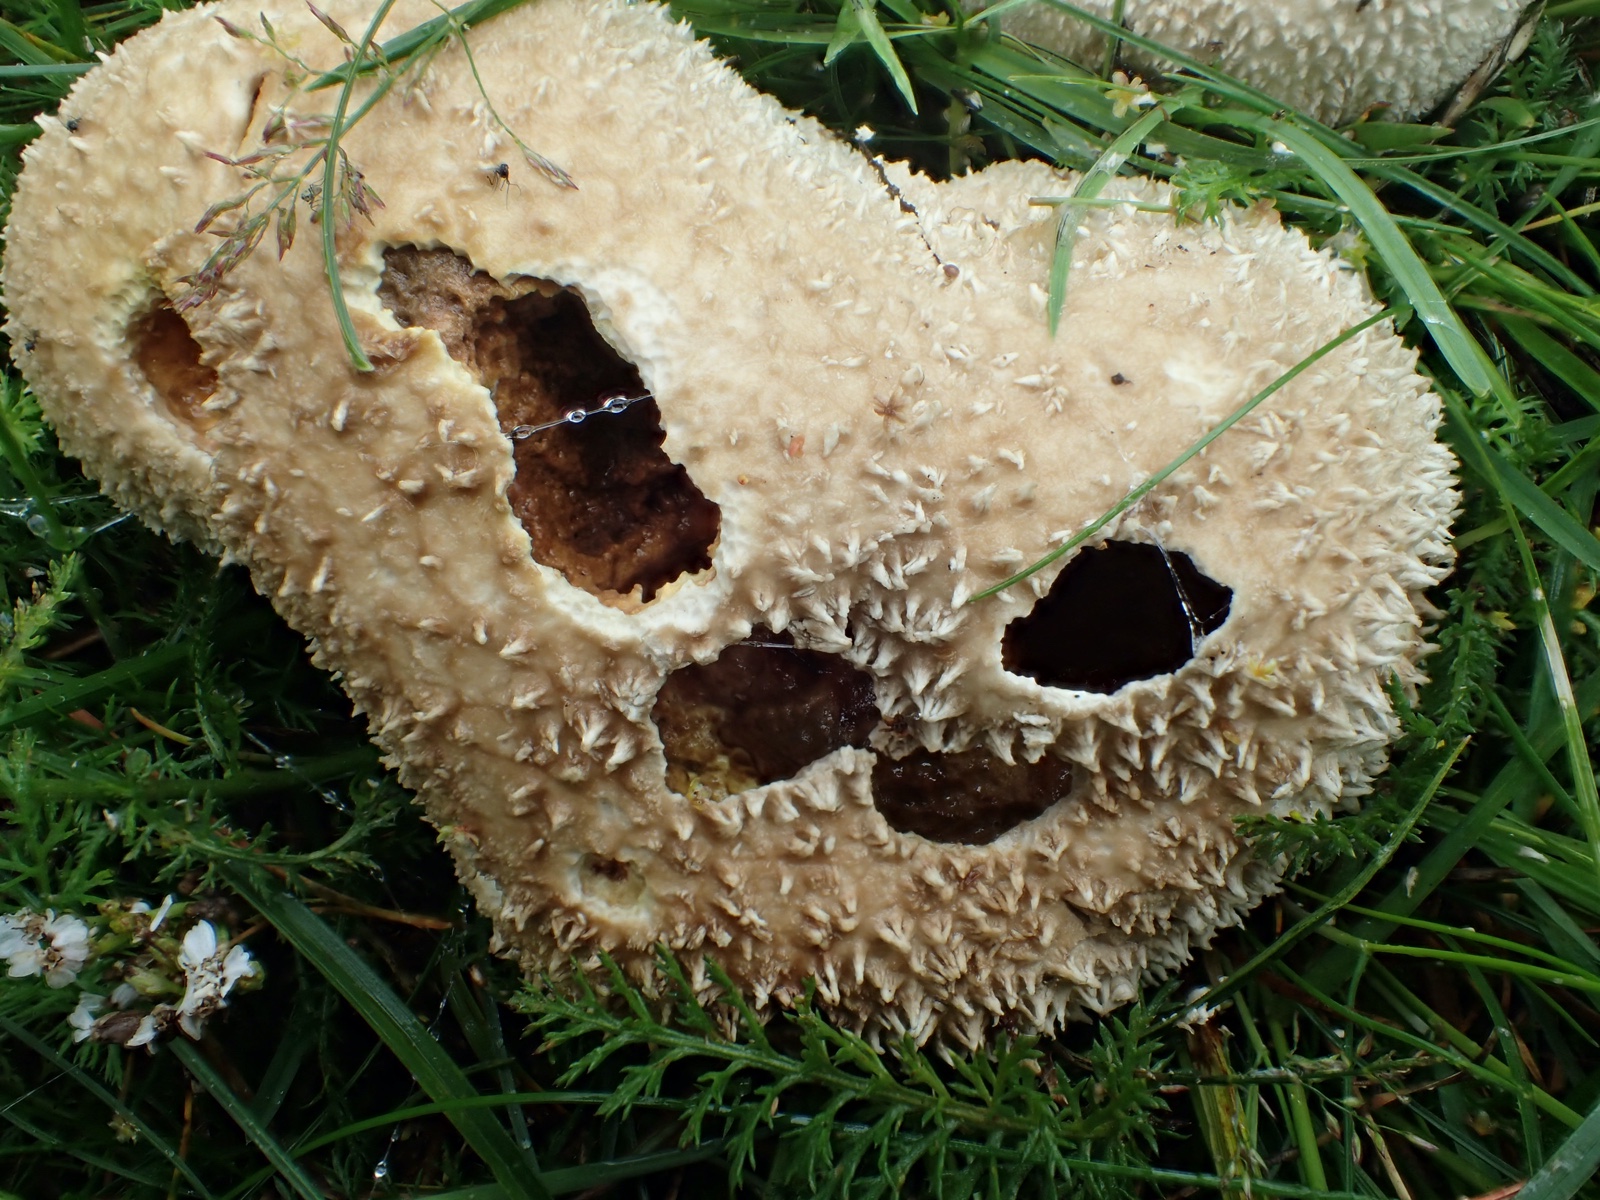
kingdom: Fungi
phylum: Basidiomycota
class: Agaricomycetes
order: Agaricales
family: Lycoperdaceae
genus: Lycoperdon
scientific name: Lycoperdon pratense
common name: flad støvbold
